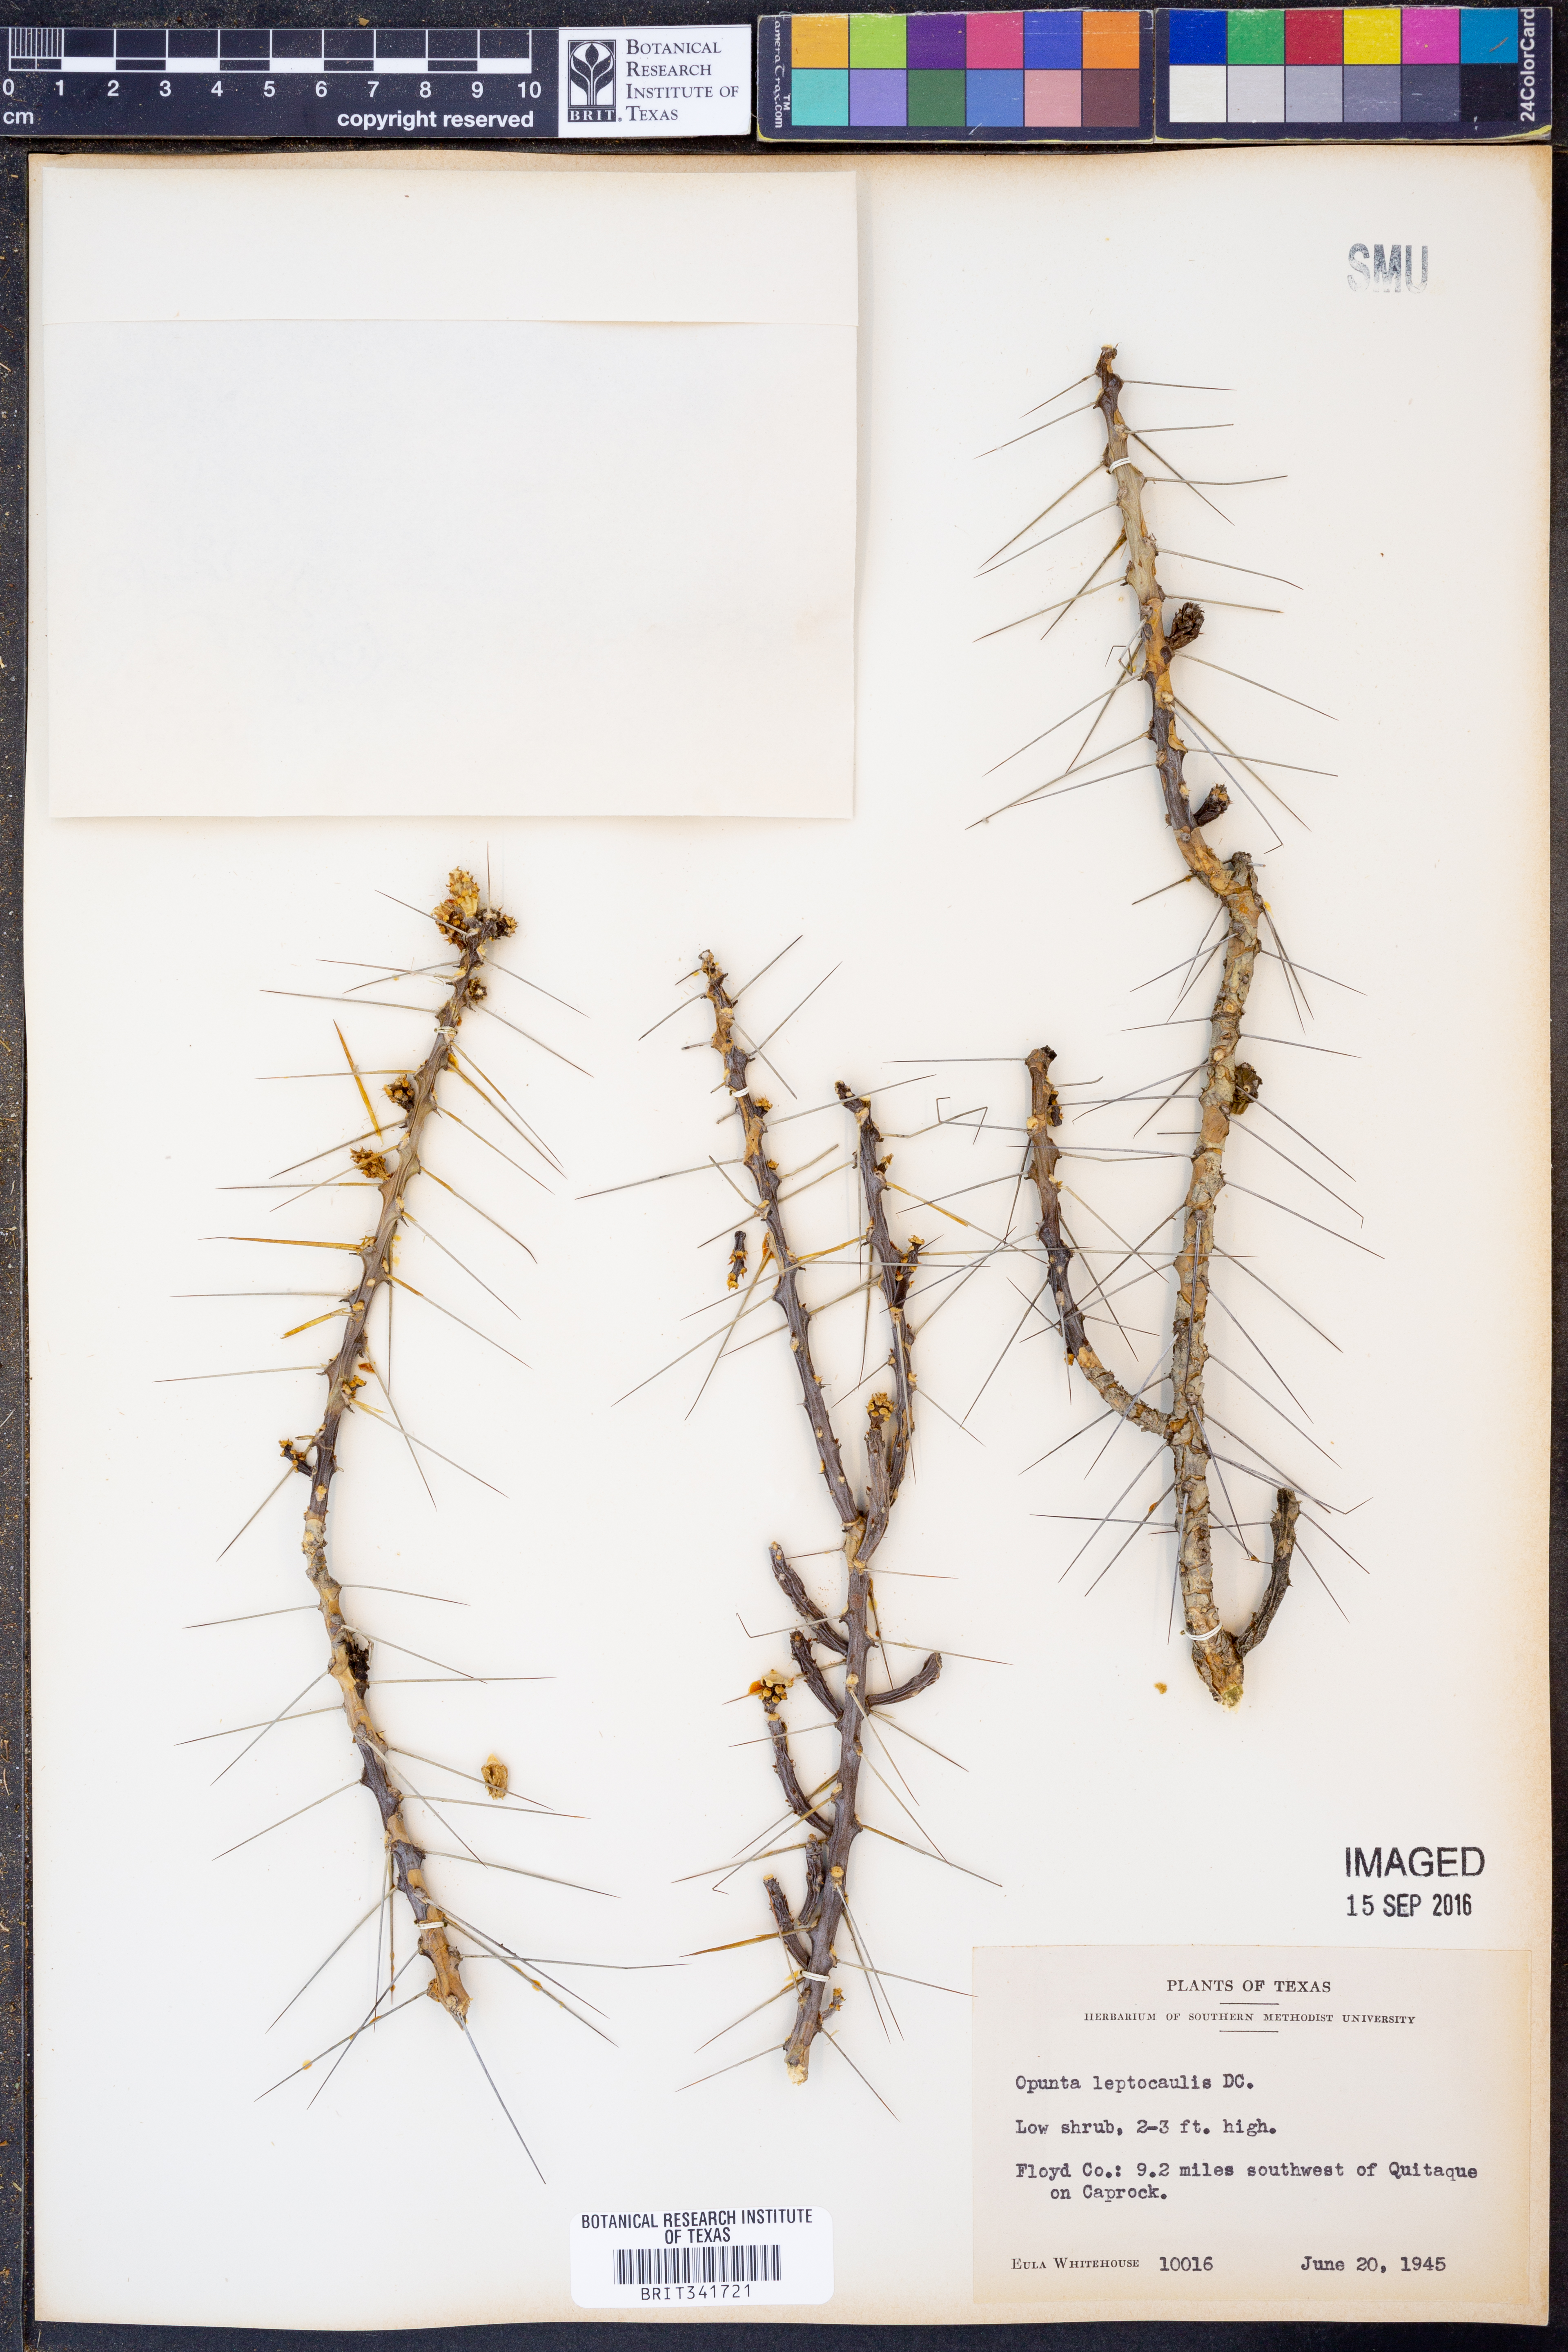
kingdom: Plantae
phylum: Tracheophyta
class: Magnoliopsida
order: Caryophyllales
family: Cactaceae
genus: Cylindropuntia
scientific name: Cylindropuntia leptocaulis
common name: Christmas cactus
